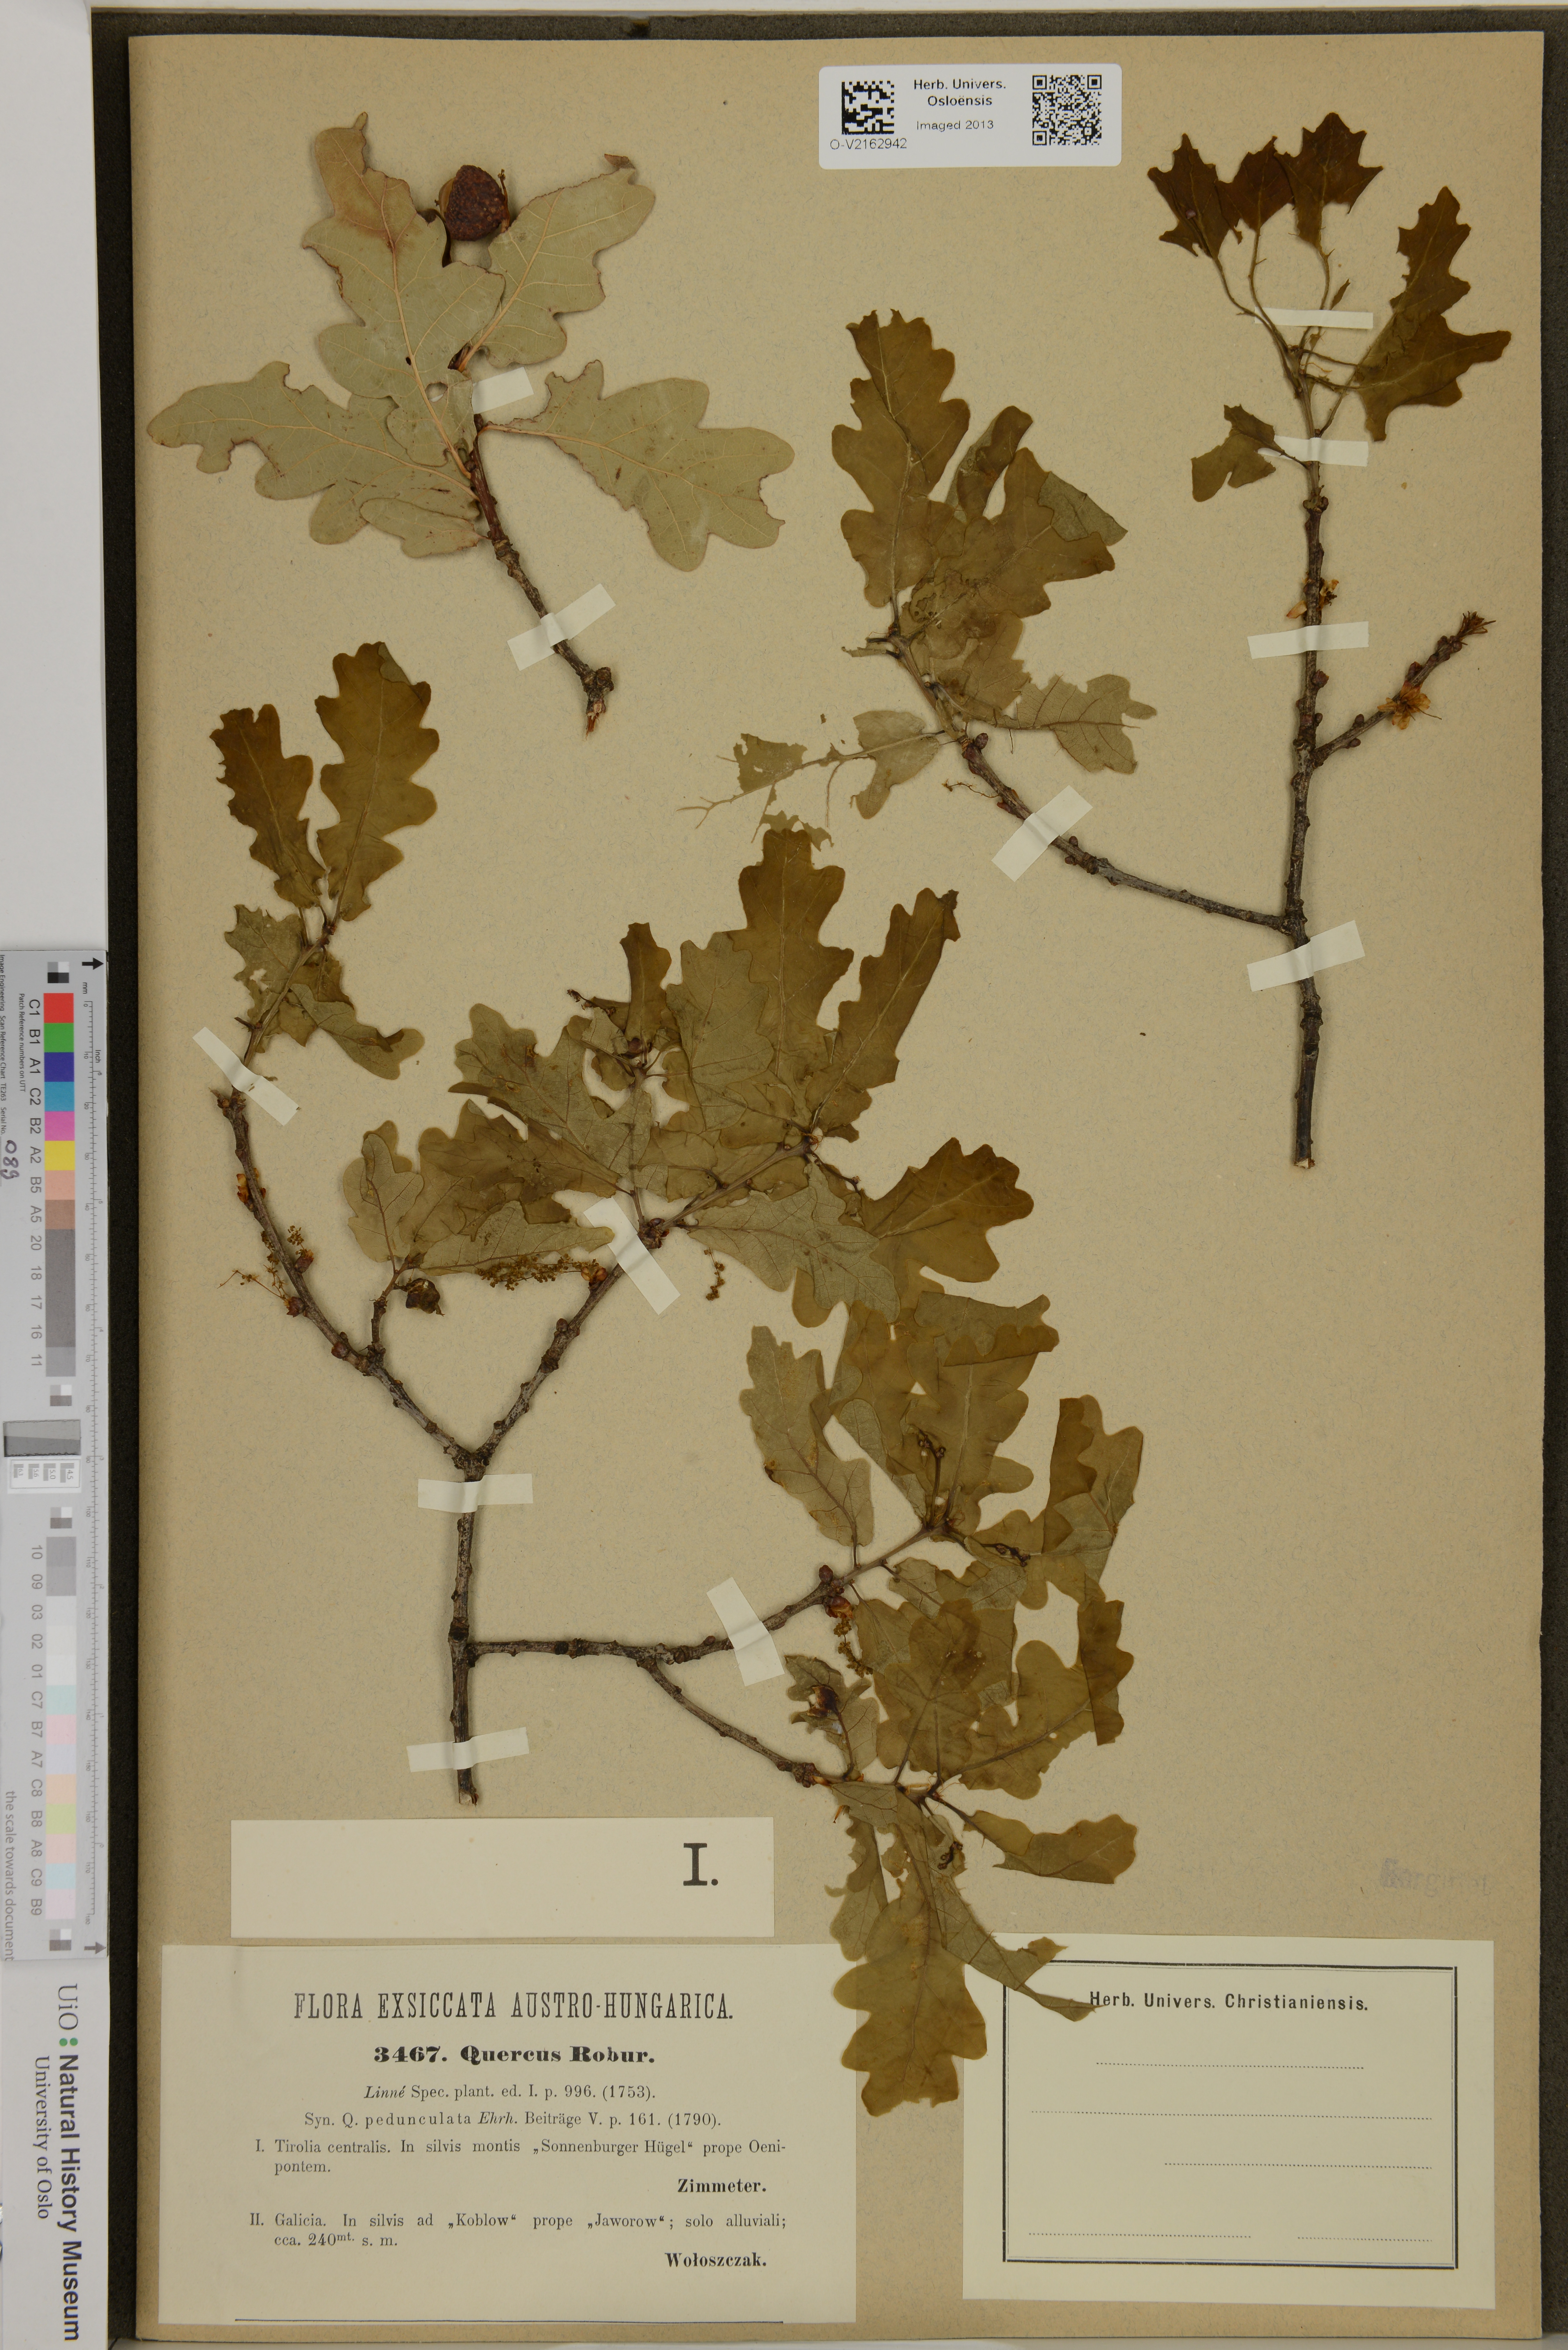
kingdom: Plantae
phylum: Tracheophyta
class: Magnoliopsida
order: Fagales
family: Fagaceae
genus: Quercus
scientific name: Quercus robur
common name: Pedunculate oak
